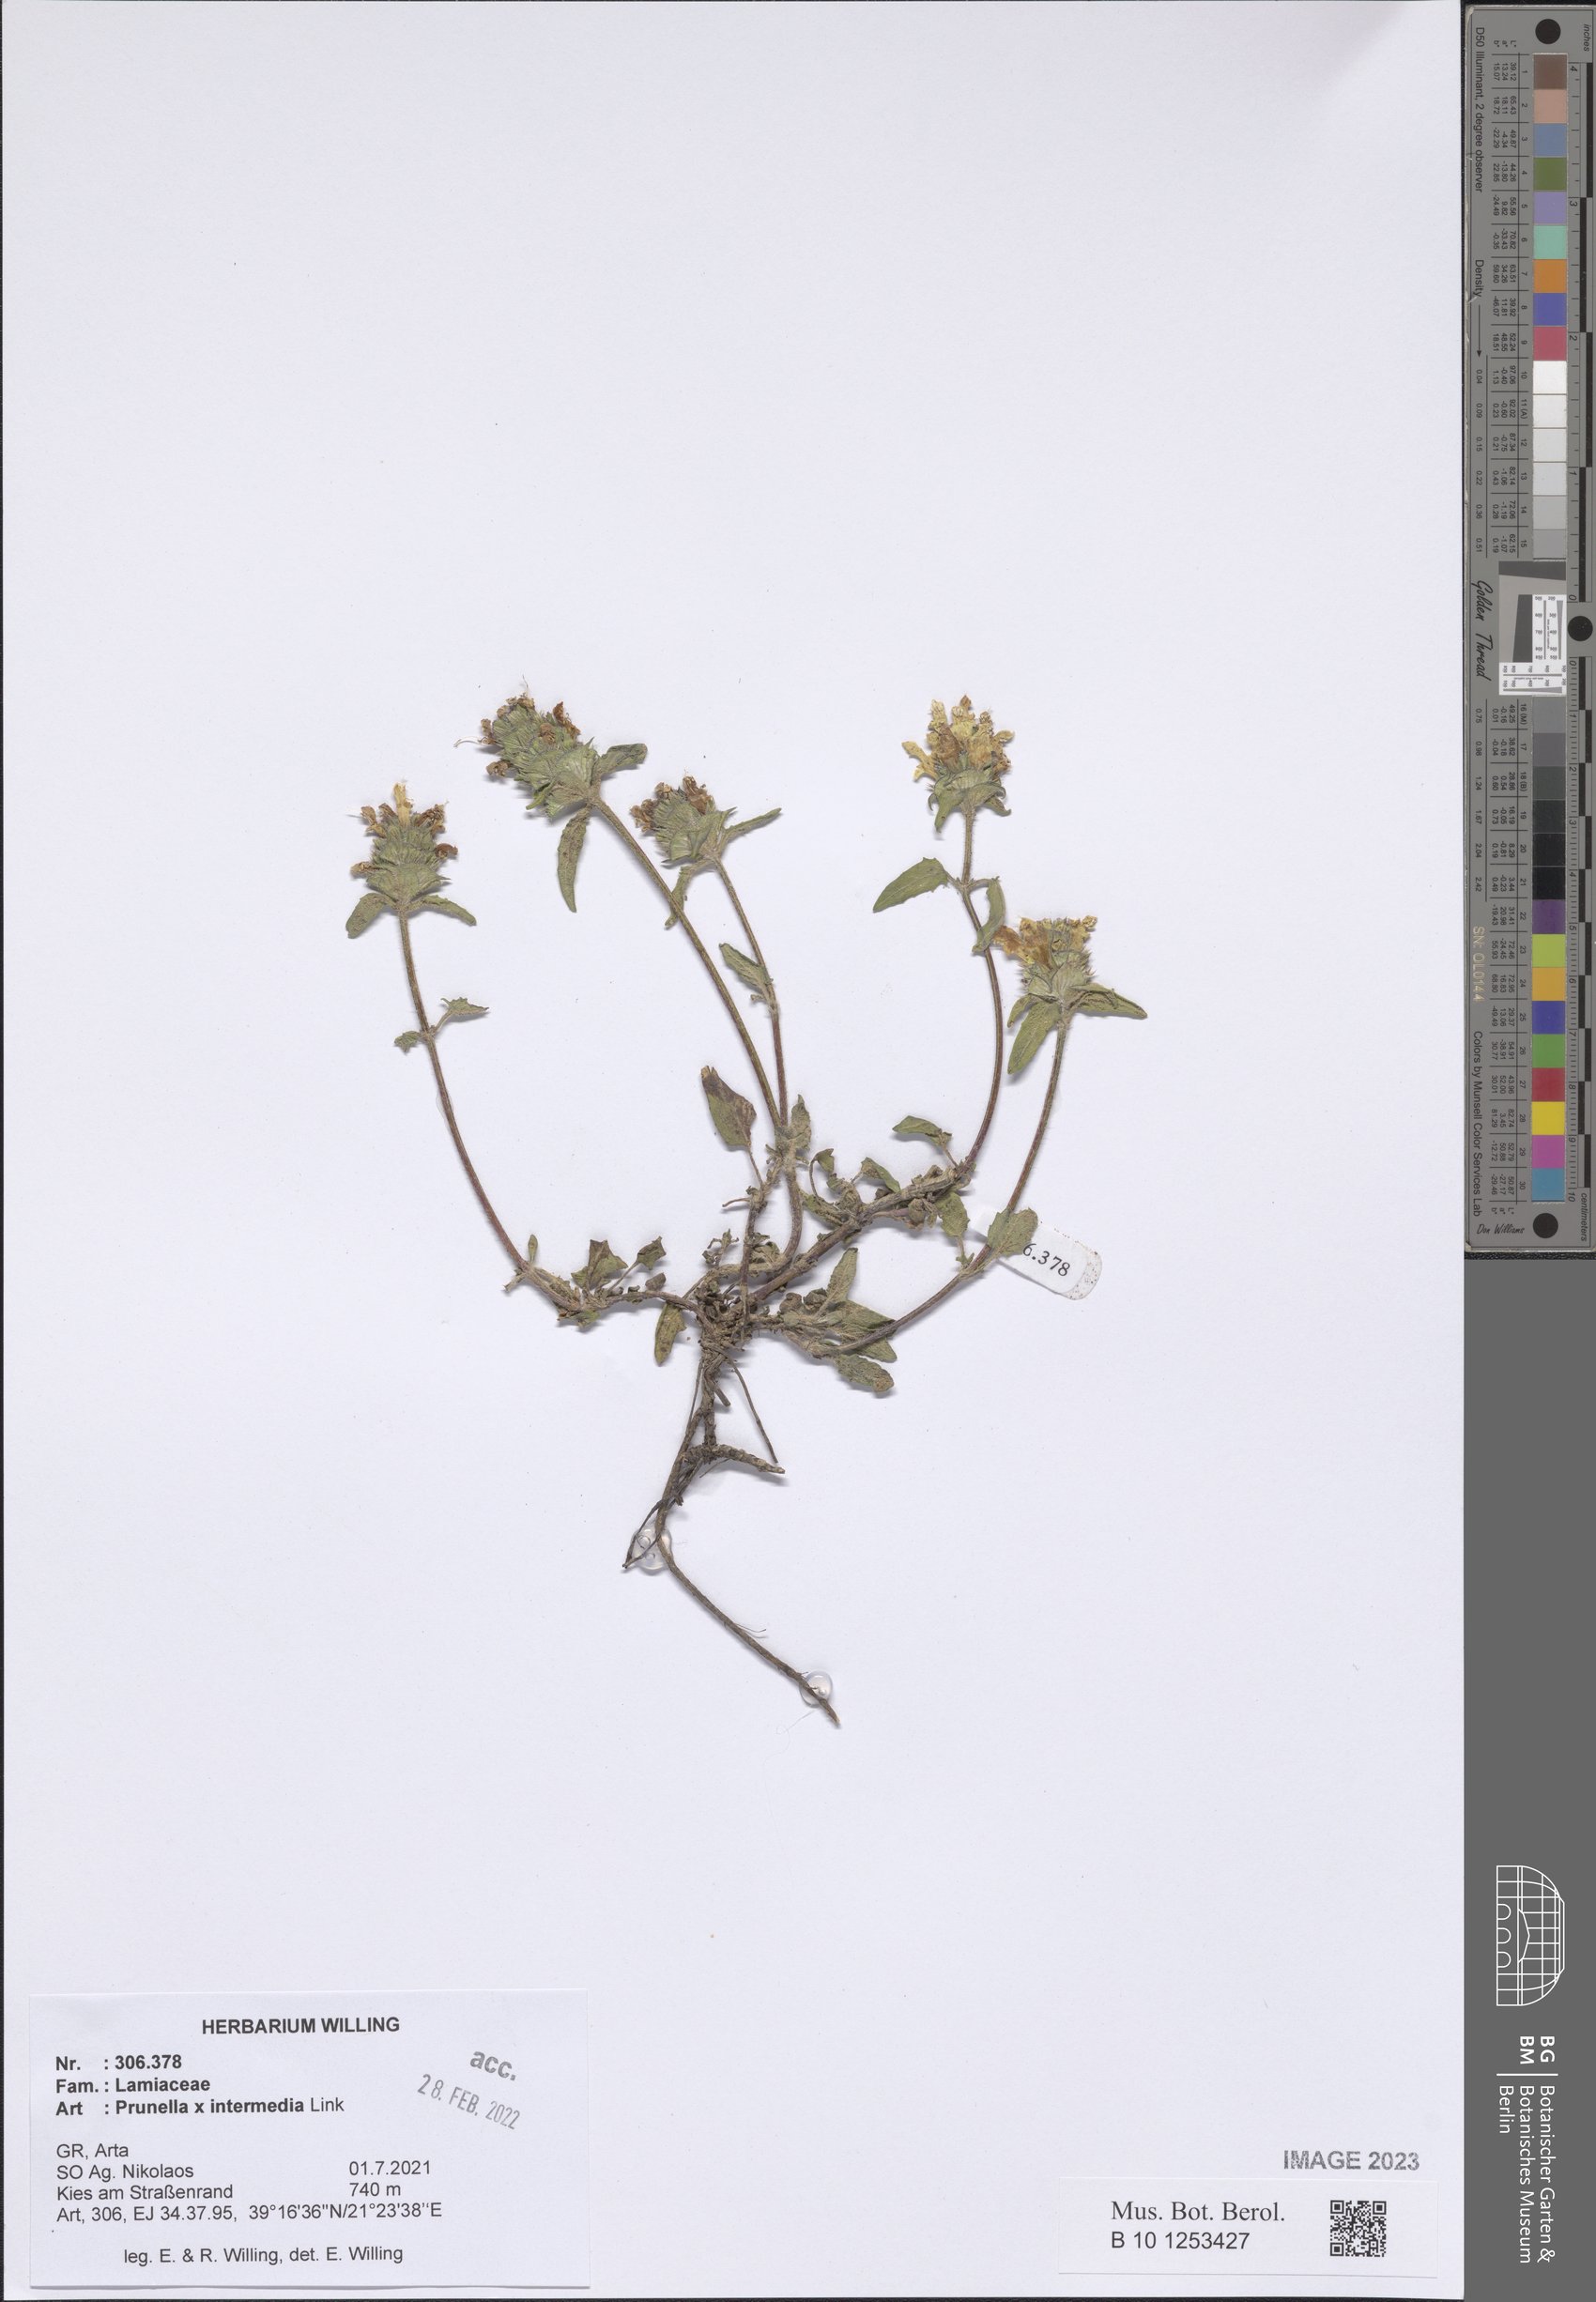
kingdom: Plantae
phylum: Tracheophyta
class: Magnoliopsida
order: Lamiales
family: Lamiaceae
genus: Prunella
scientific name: Prunella
